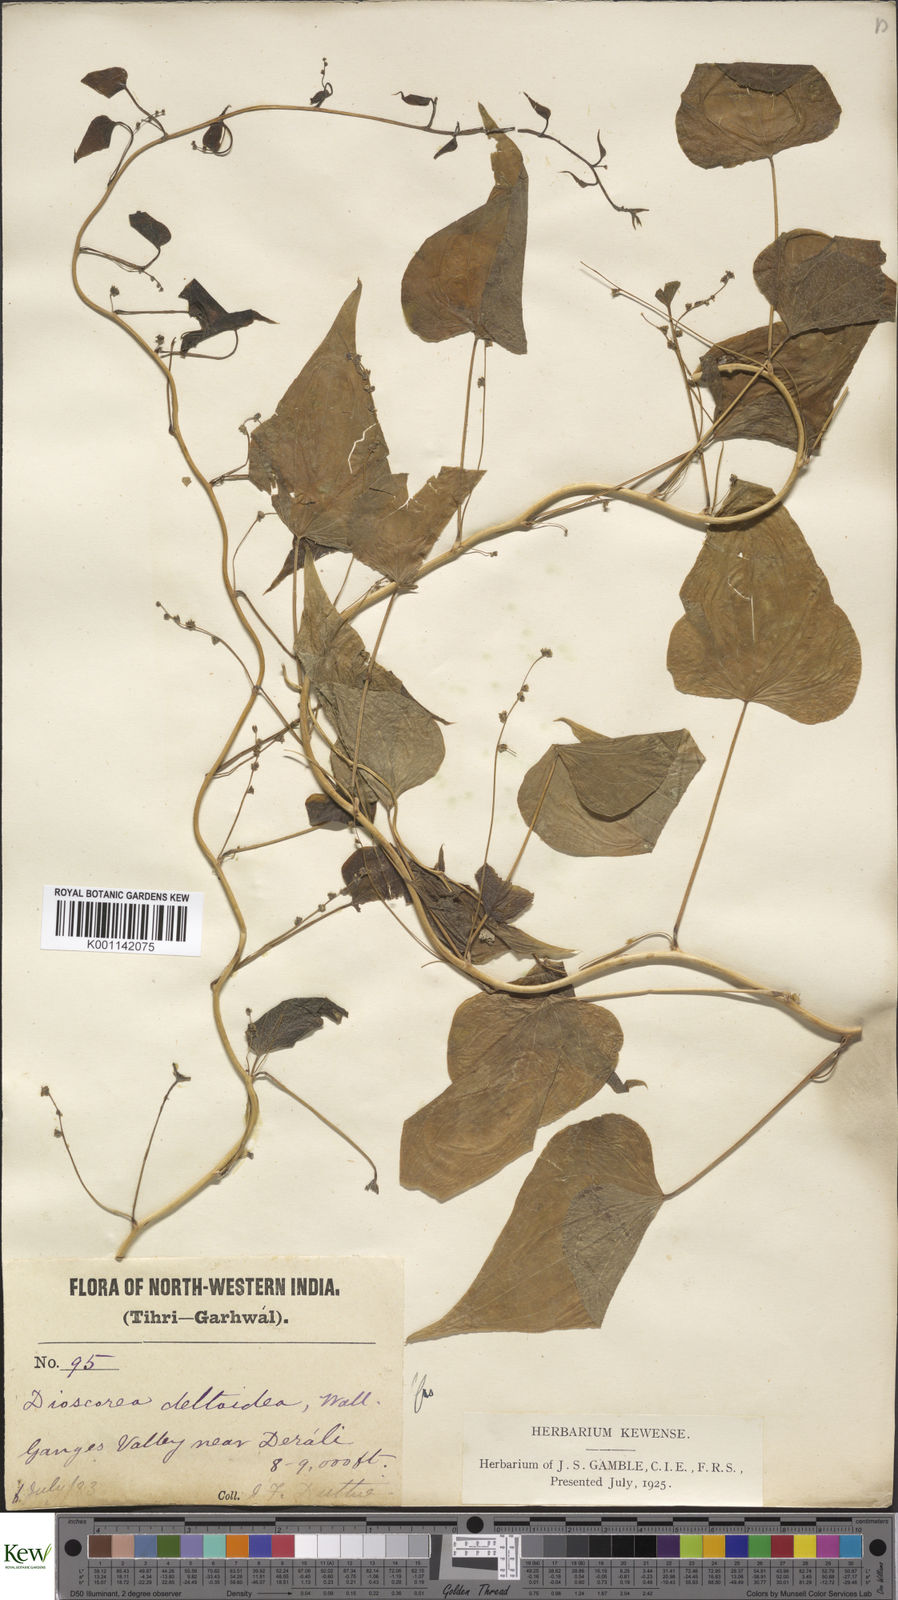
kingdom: Plantae
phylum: Tracheophyta
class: Liliopsida
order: Dioscoreales
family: Dioscoreaceae
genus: Dioscorea
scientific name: Dioscorea deltoidea
